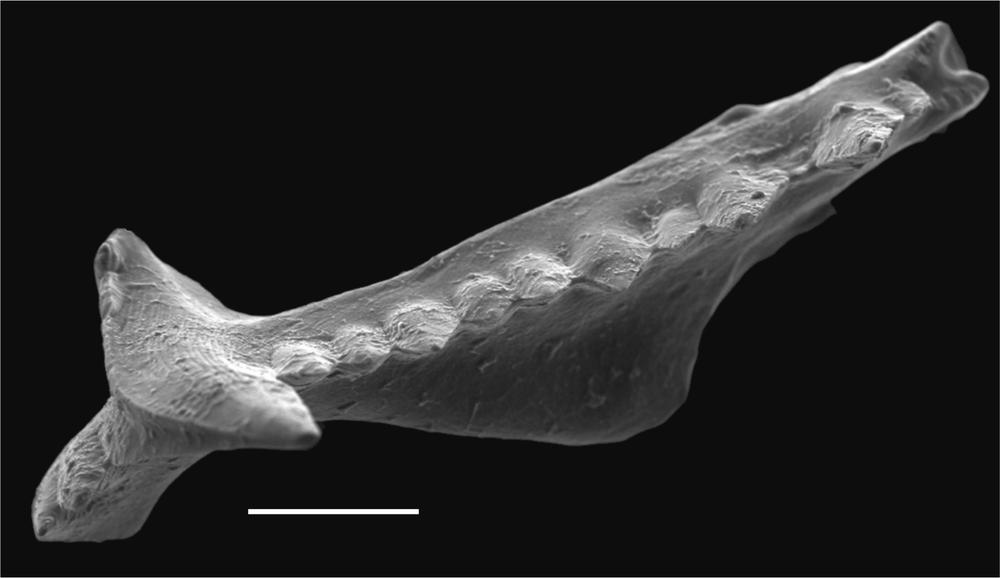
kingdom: Animalia
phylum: Chordata
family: Balognathidae
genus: Baltoniodus
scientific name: Baltoniodus Prioniodus variabilis
